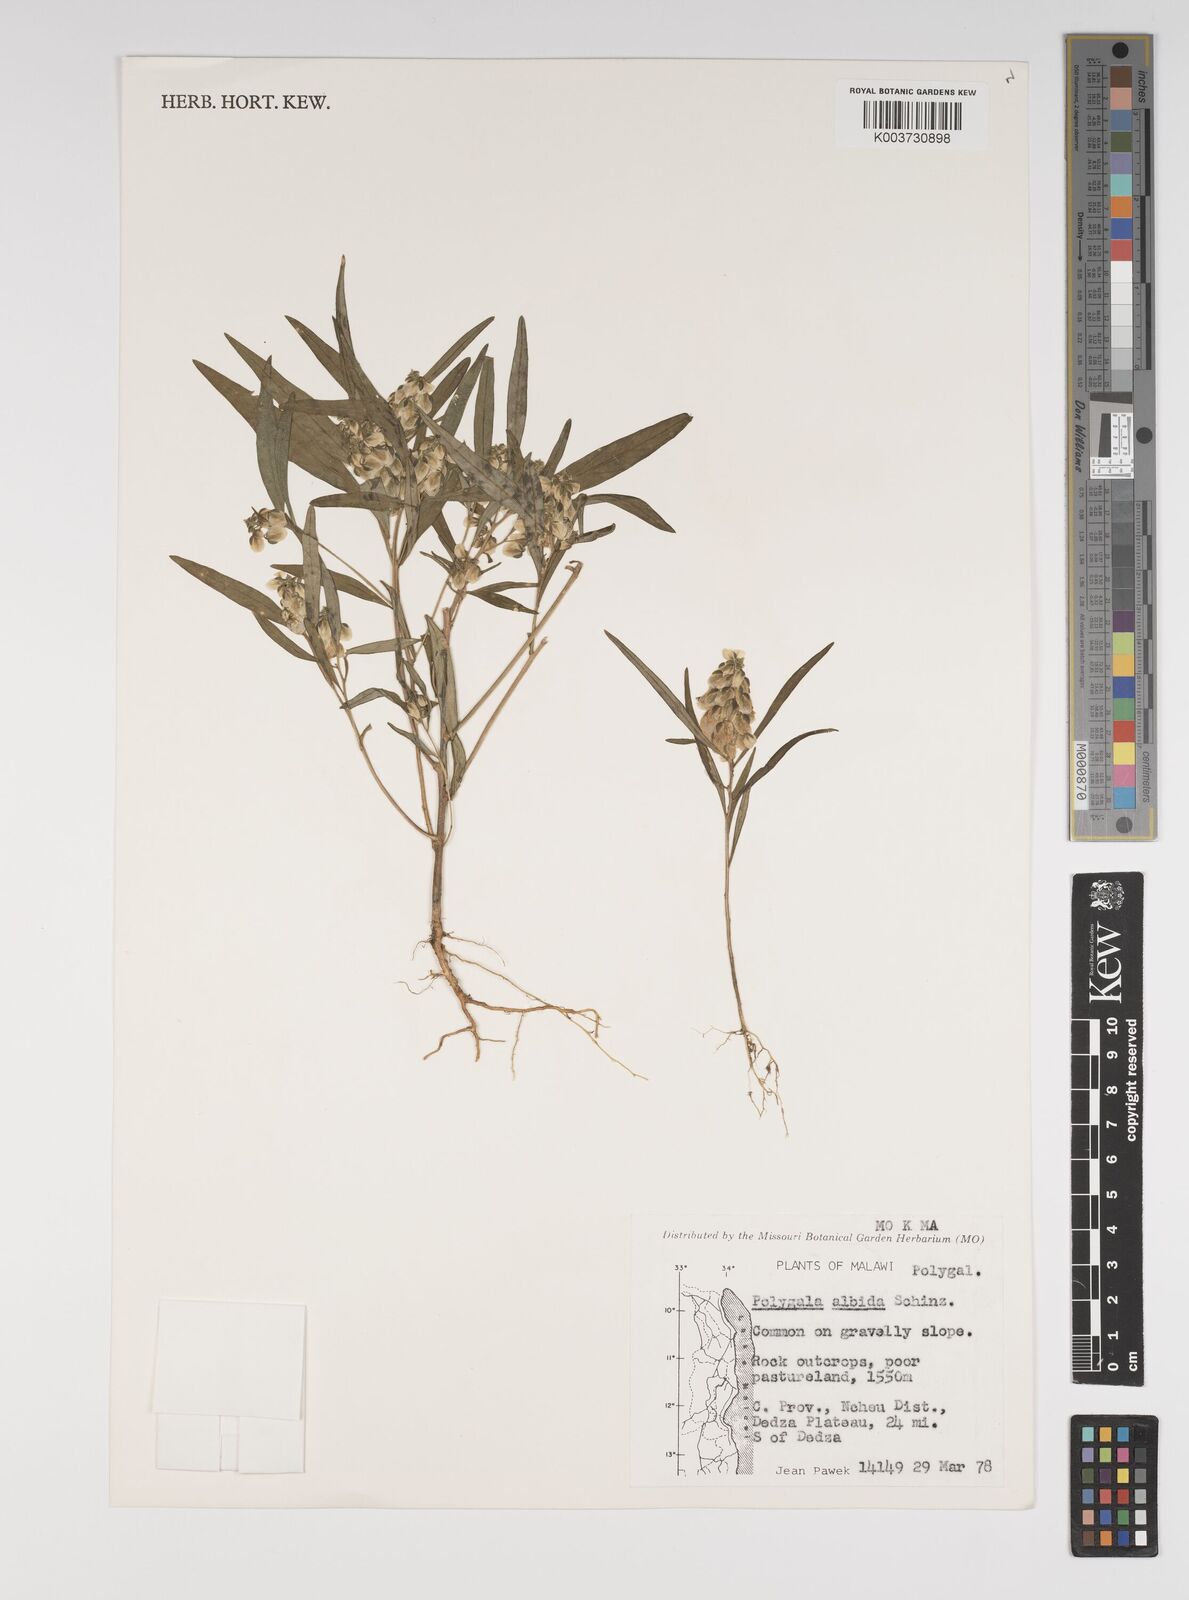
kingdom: Plantae
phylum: Tracheophyta
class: Magnoliopsida
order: Fabales
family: Polygalaceae
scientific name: Polygalaceae
